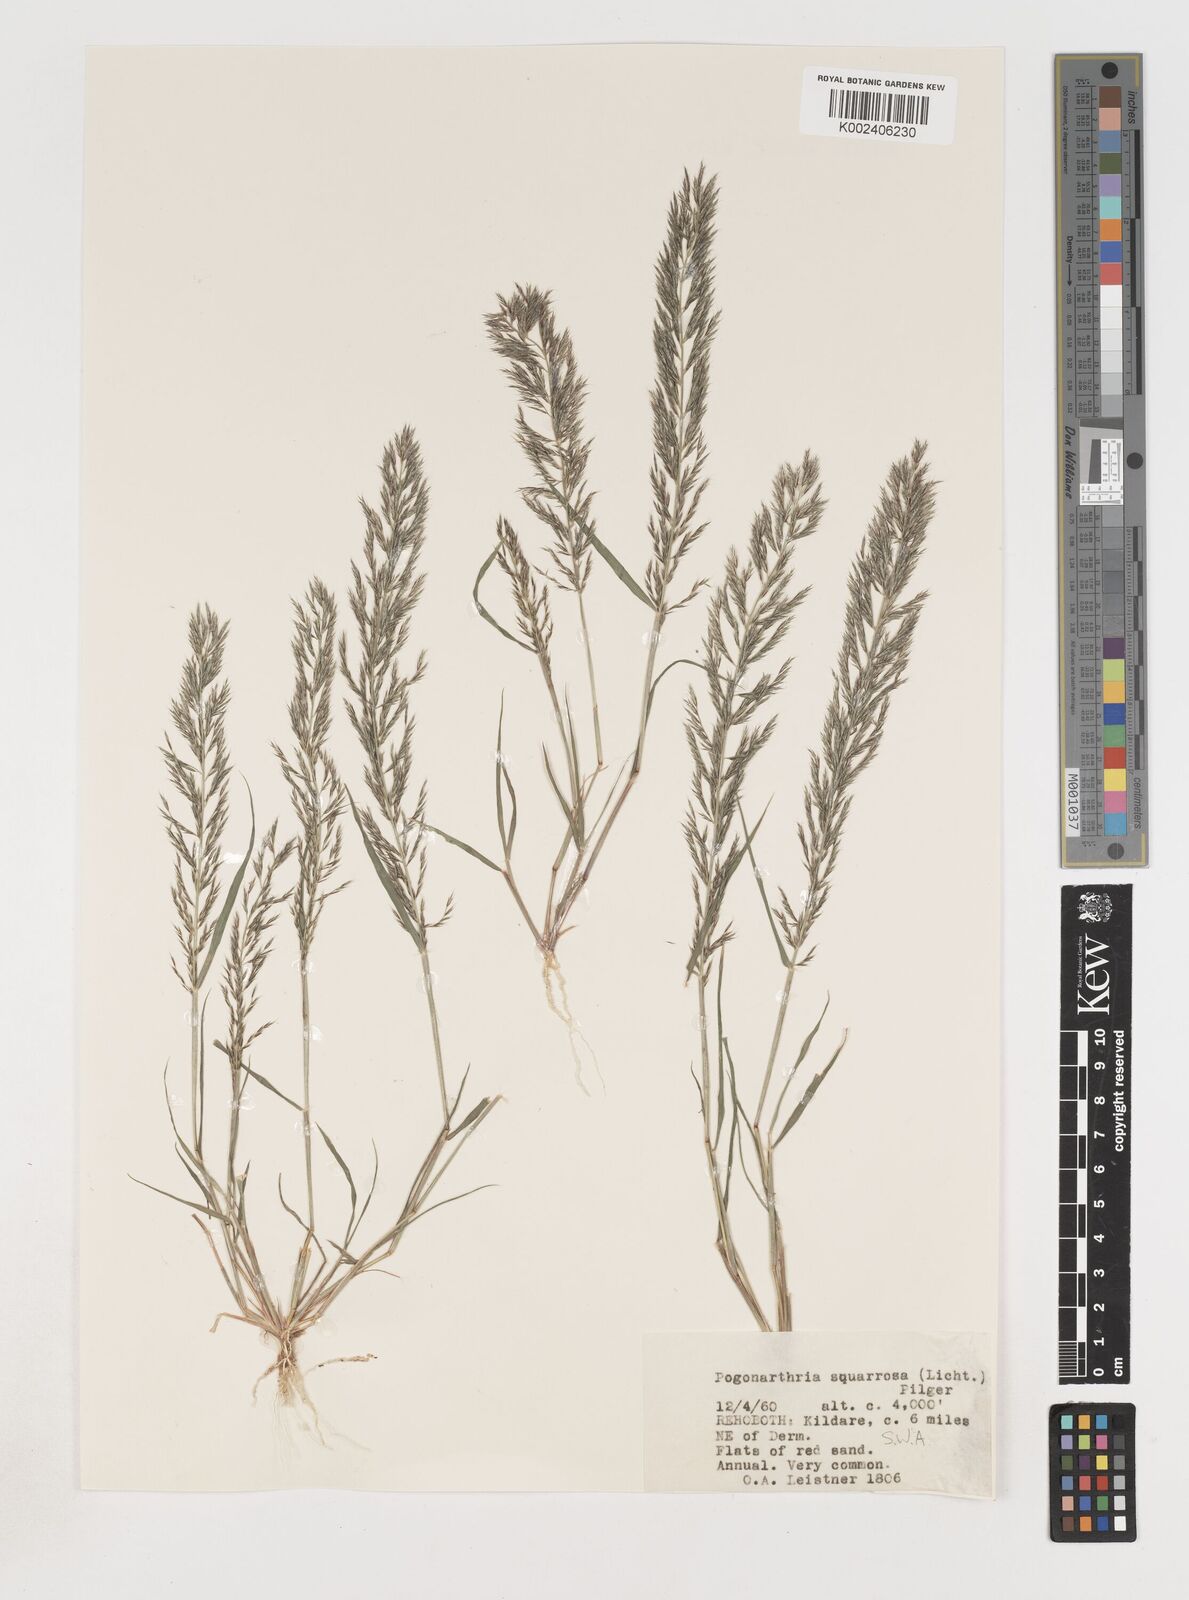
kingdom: Plantae
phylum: Tracheophyta
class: Liliopsida
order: Poales
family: Poaceae
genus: Pogonarthria
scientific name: Pogonarthria squarrosa
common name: Grass
